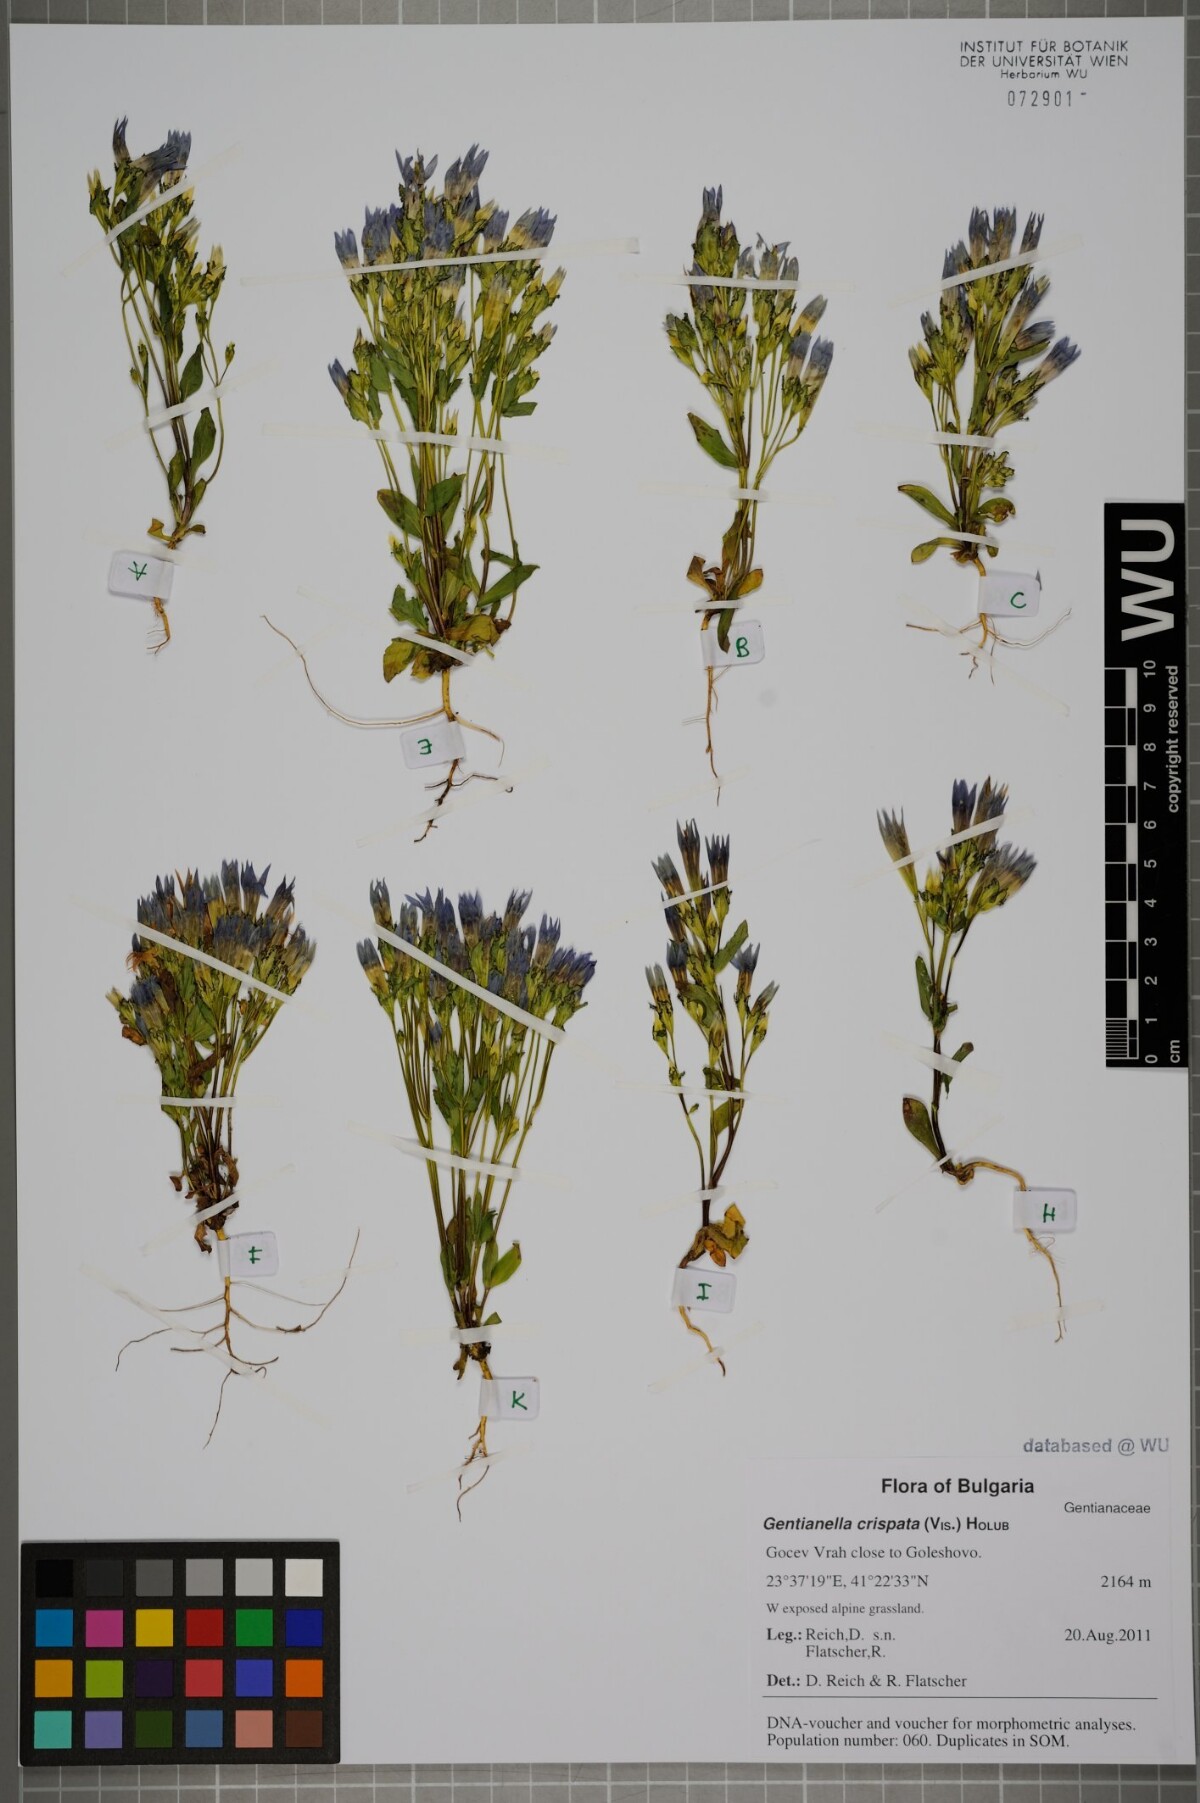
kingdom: Plantae
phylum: Tracheophyta
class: Magnoliopsida
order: Gentianales
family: Gentianaceae
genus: Gentianella
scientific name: Gentianella crispata
